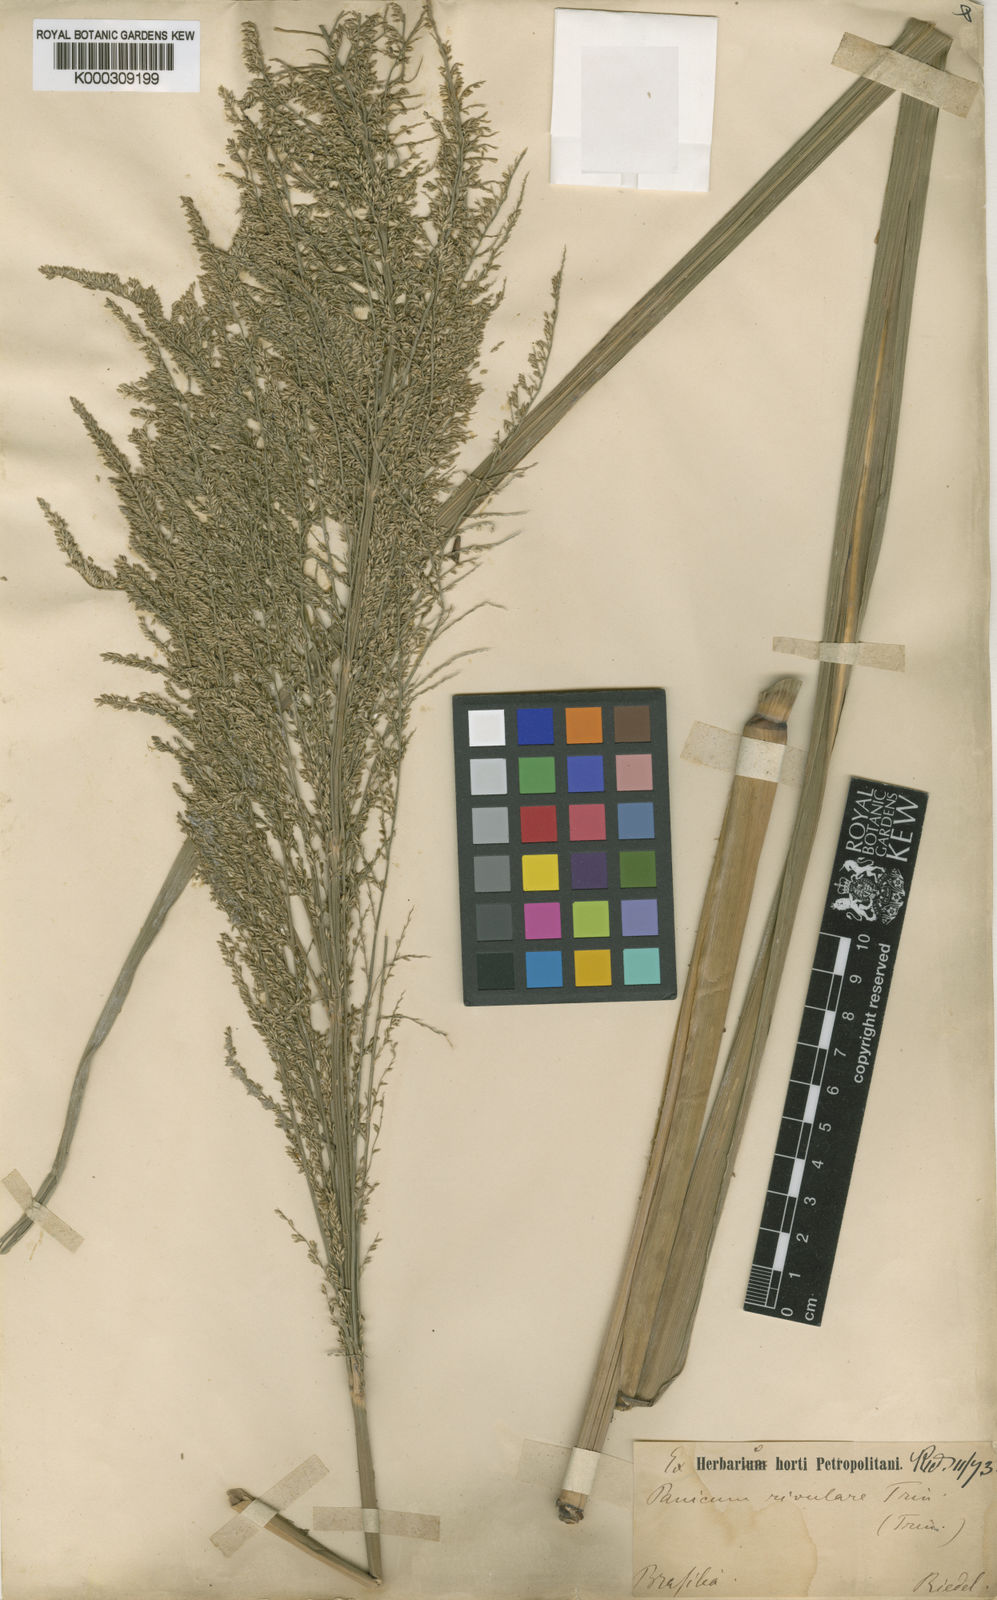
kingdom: Plantae
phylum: Tracheophyta
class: Liliopsida
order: Poales
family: Poaceae
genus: Hymenachne
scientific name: Hymenachne pernambucensis
